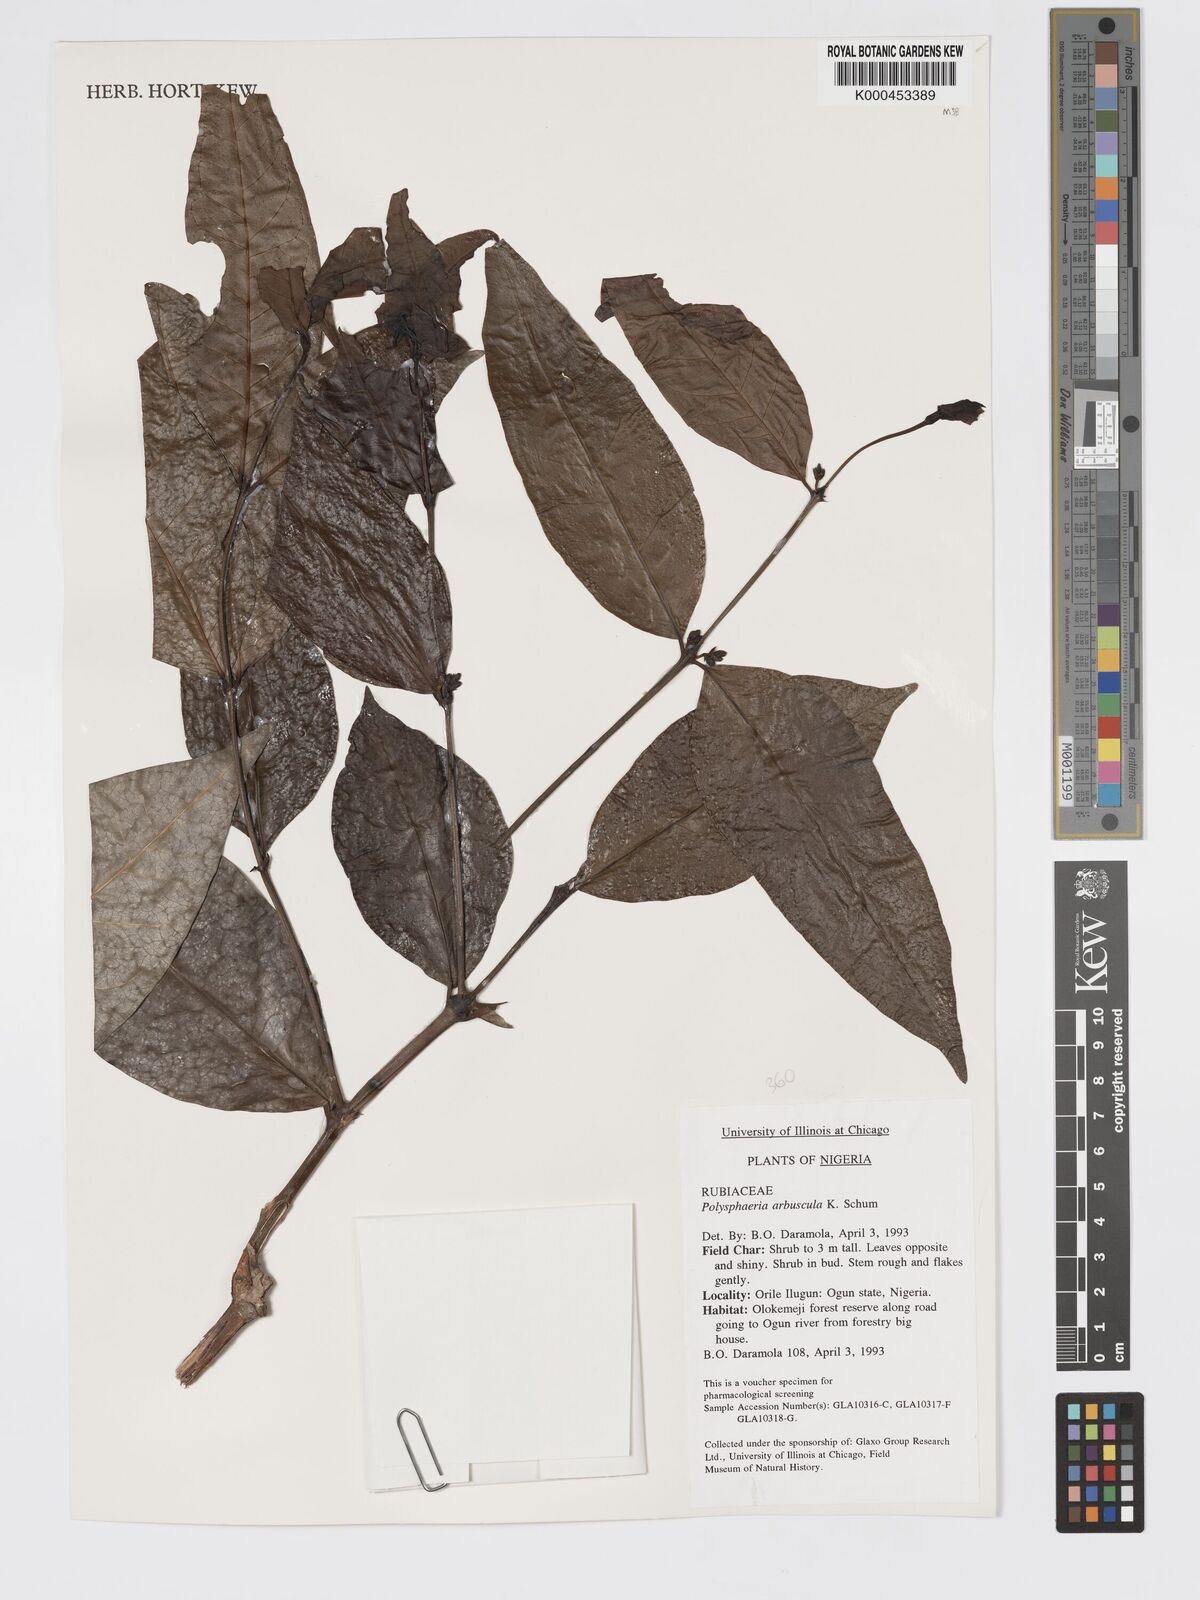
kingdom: Plantae
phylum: Tracheophyta
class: Magnoliopsida
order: Gentianales
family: Rubiaceae
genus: Polysphaeria
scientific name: Polysphaeria arbuscula
